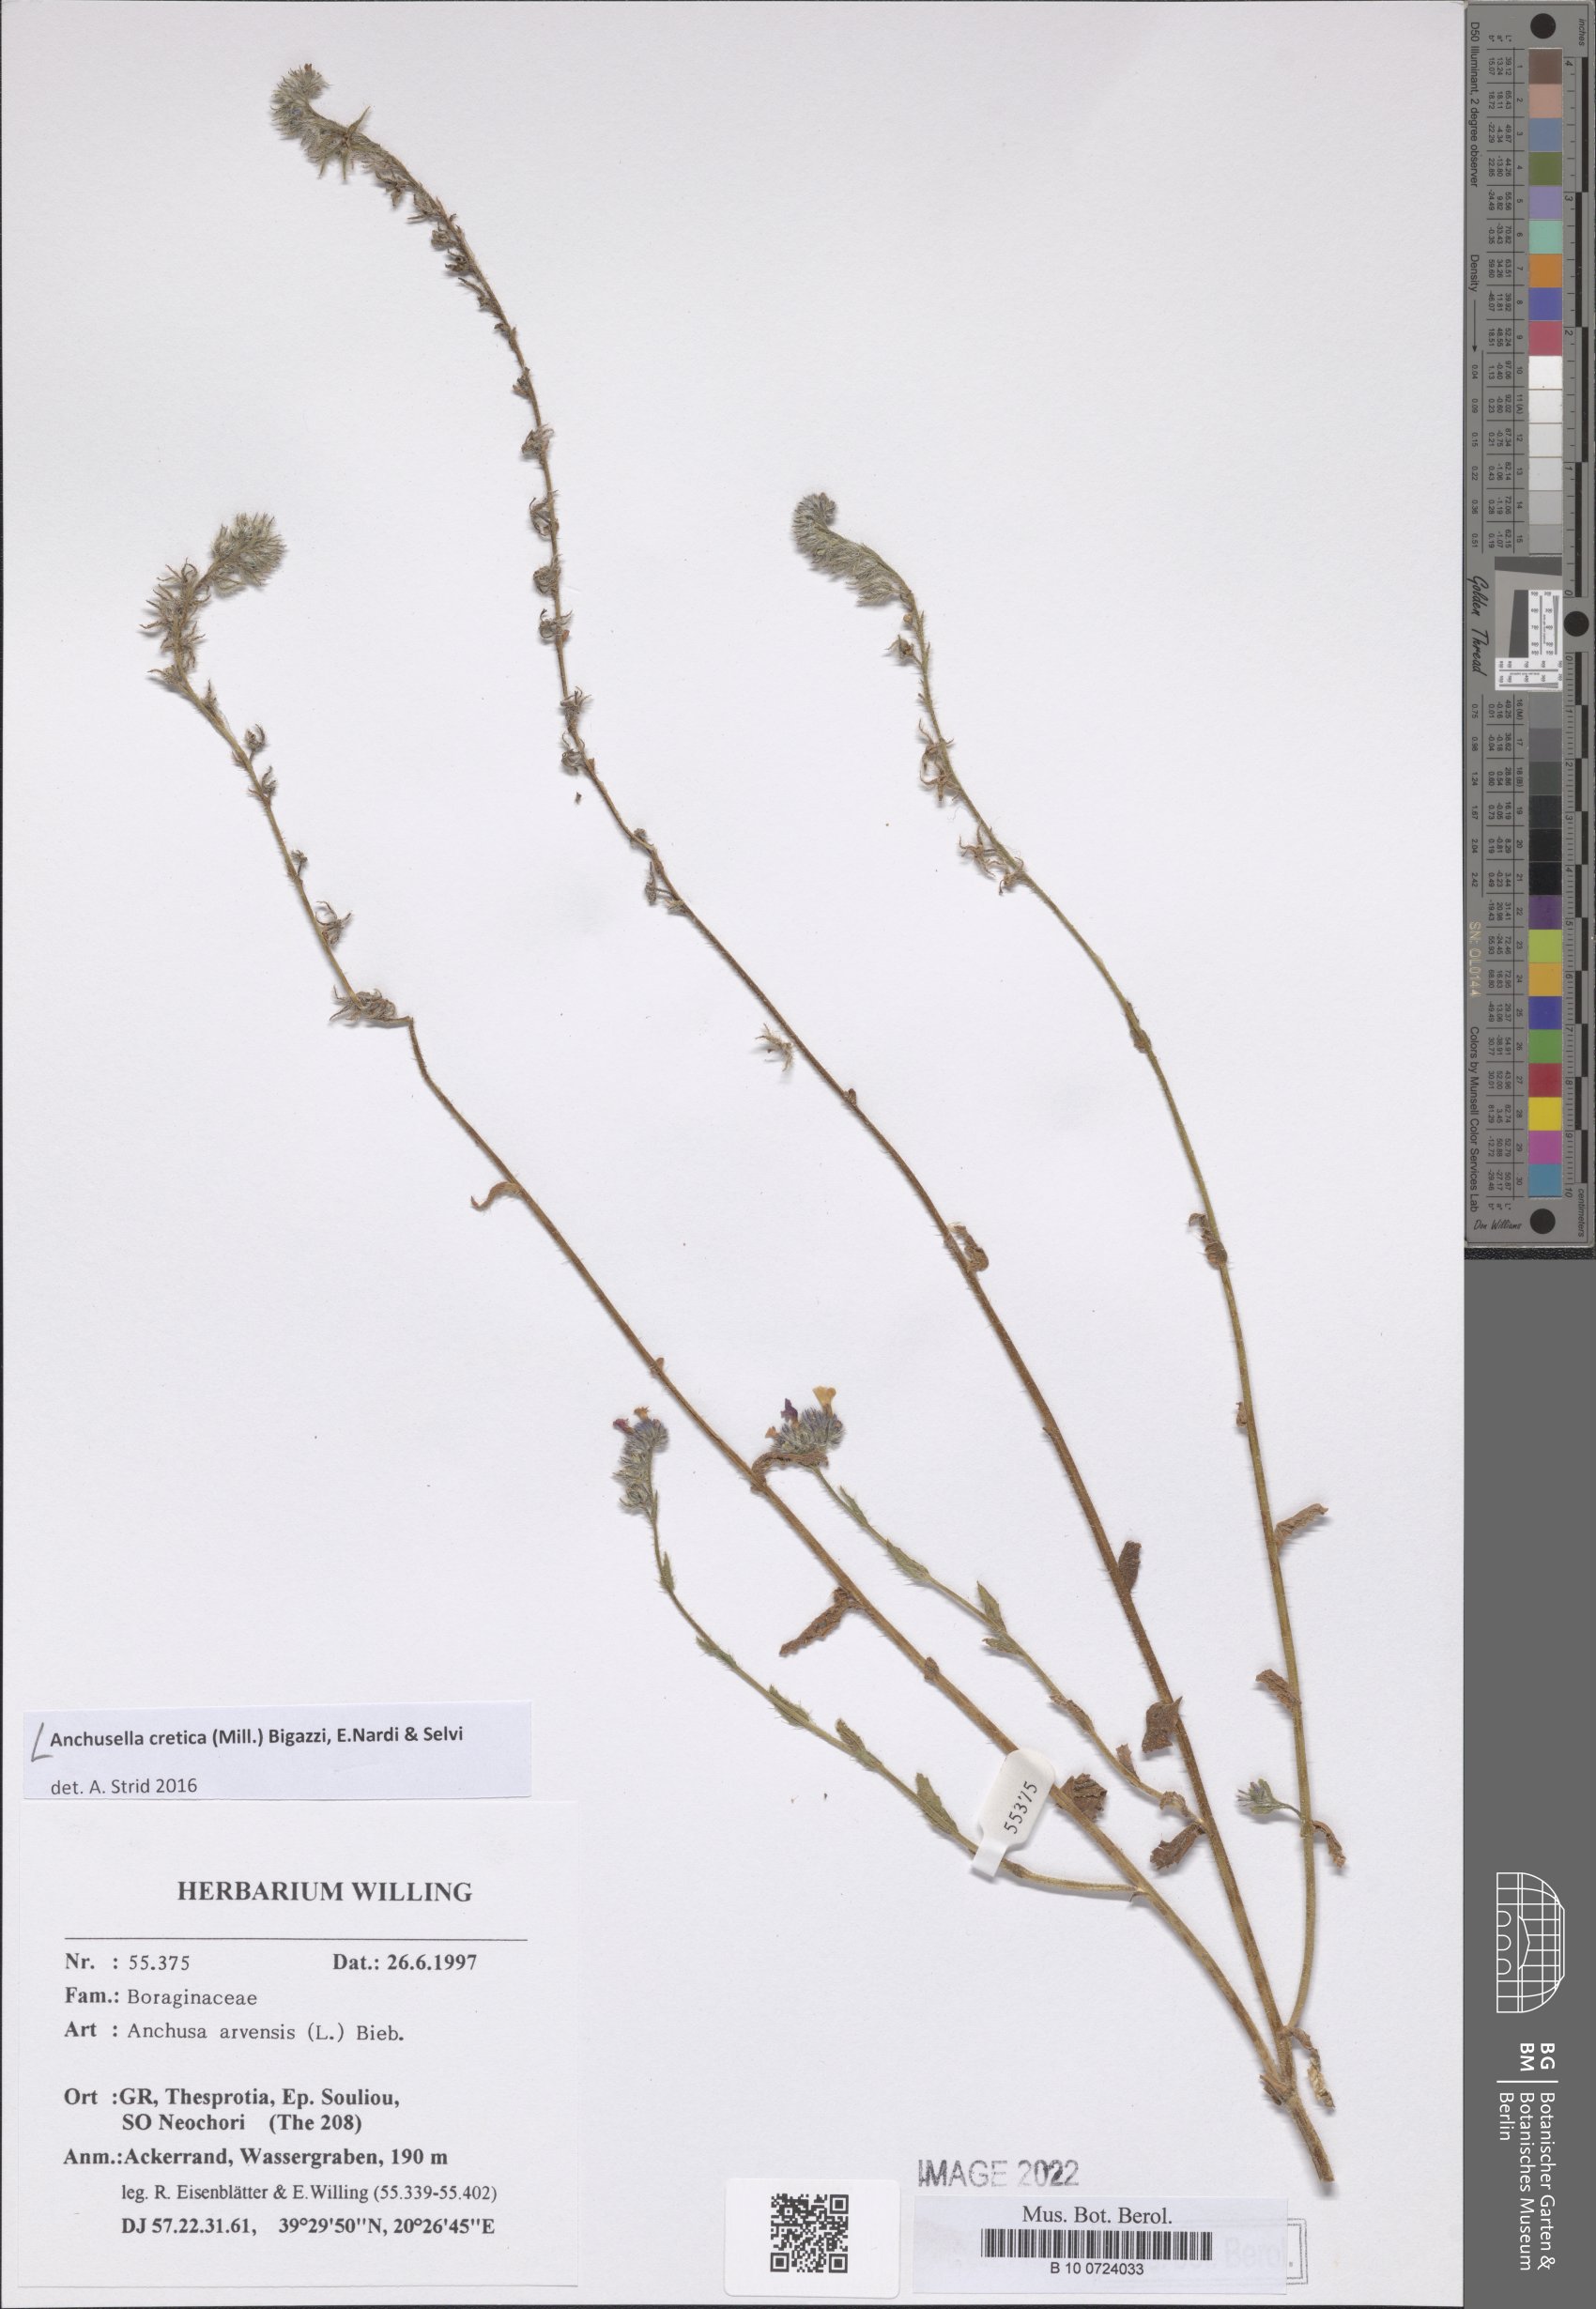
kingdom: Plantae
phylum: Tracheophyta
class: Magnoliopsida
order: Boraginales
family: Boraginaceae
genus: Anchusella
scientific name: Anchusella cretica
